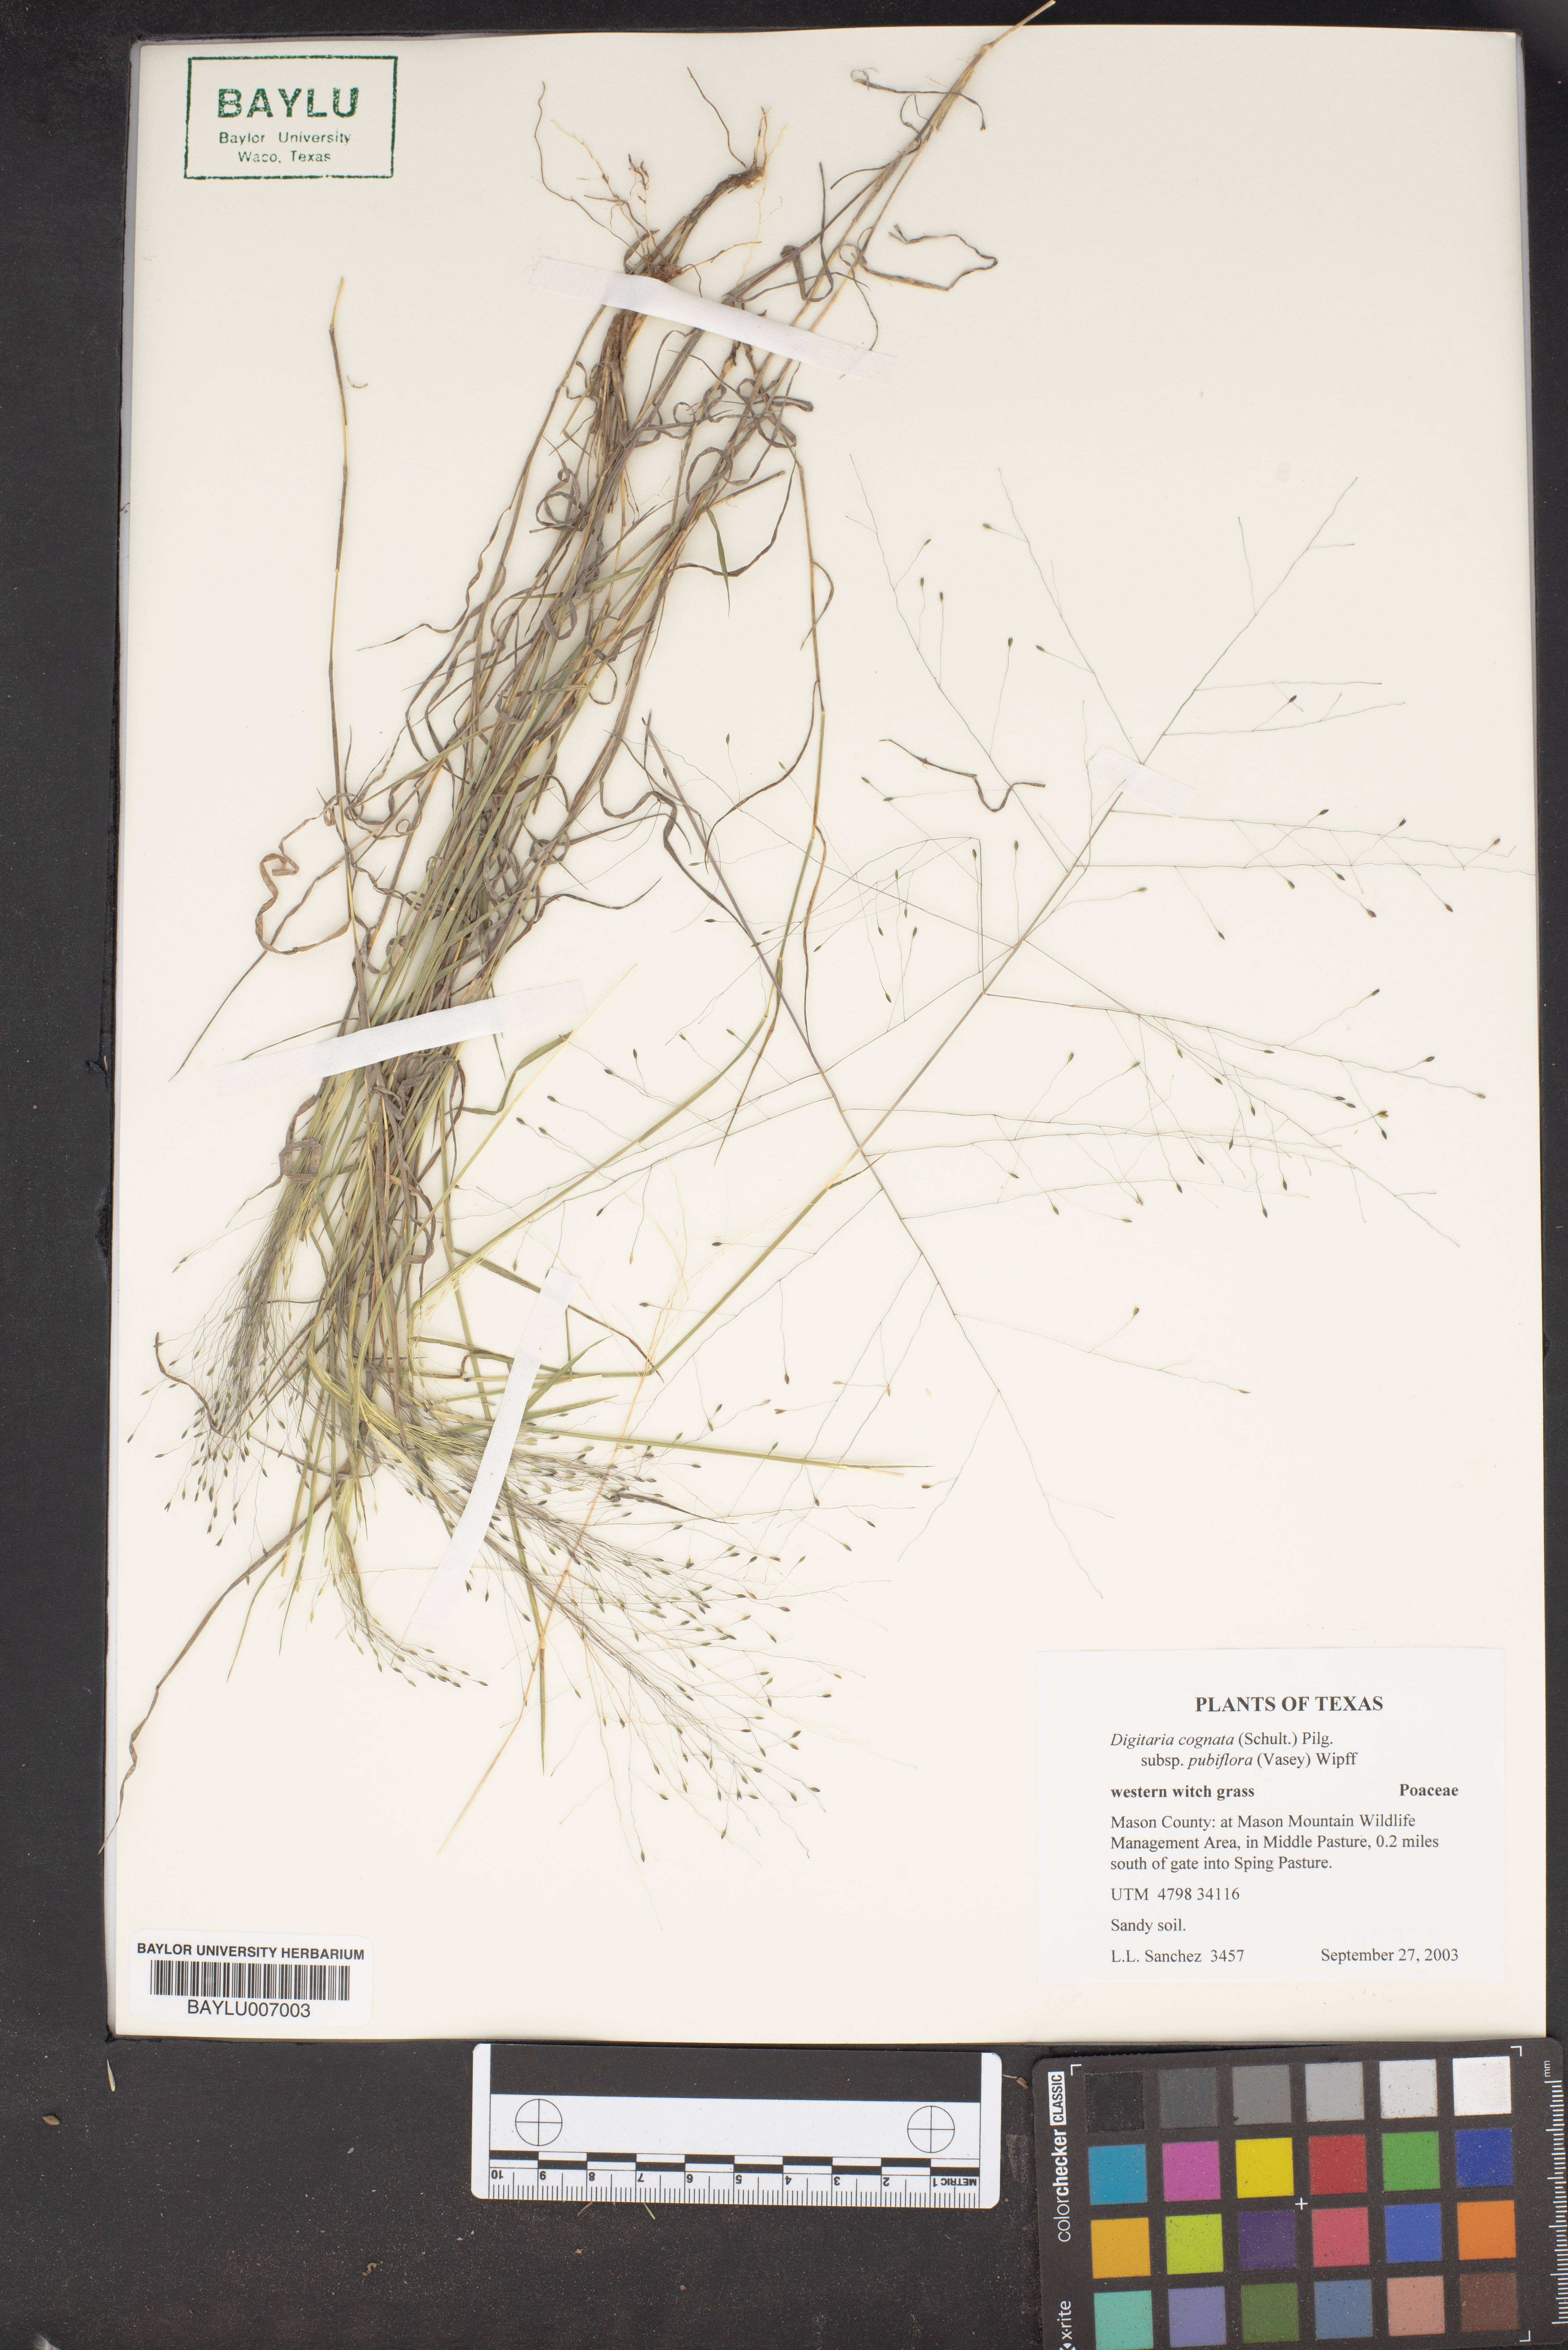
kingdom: Plantae
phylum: Tracheophyta
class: Liliopsida
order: Poales
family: Poaceae
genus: Digitaria
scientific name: Digitaria cognata
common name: Fall witchgrass
